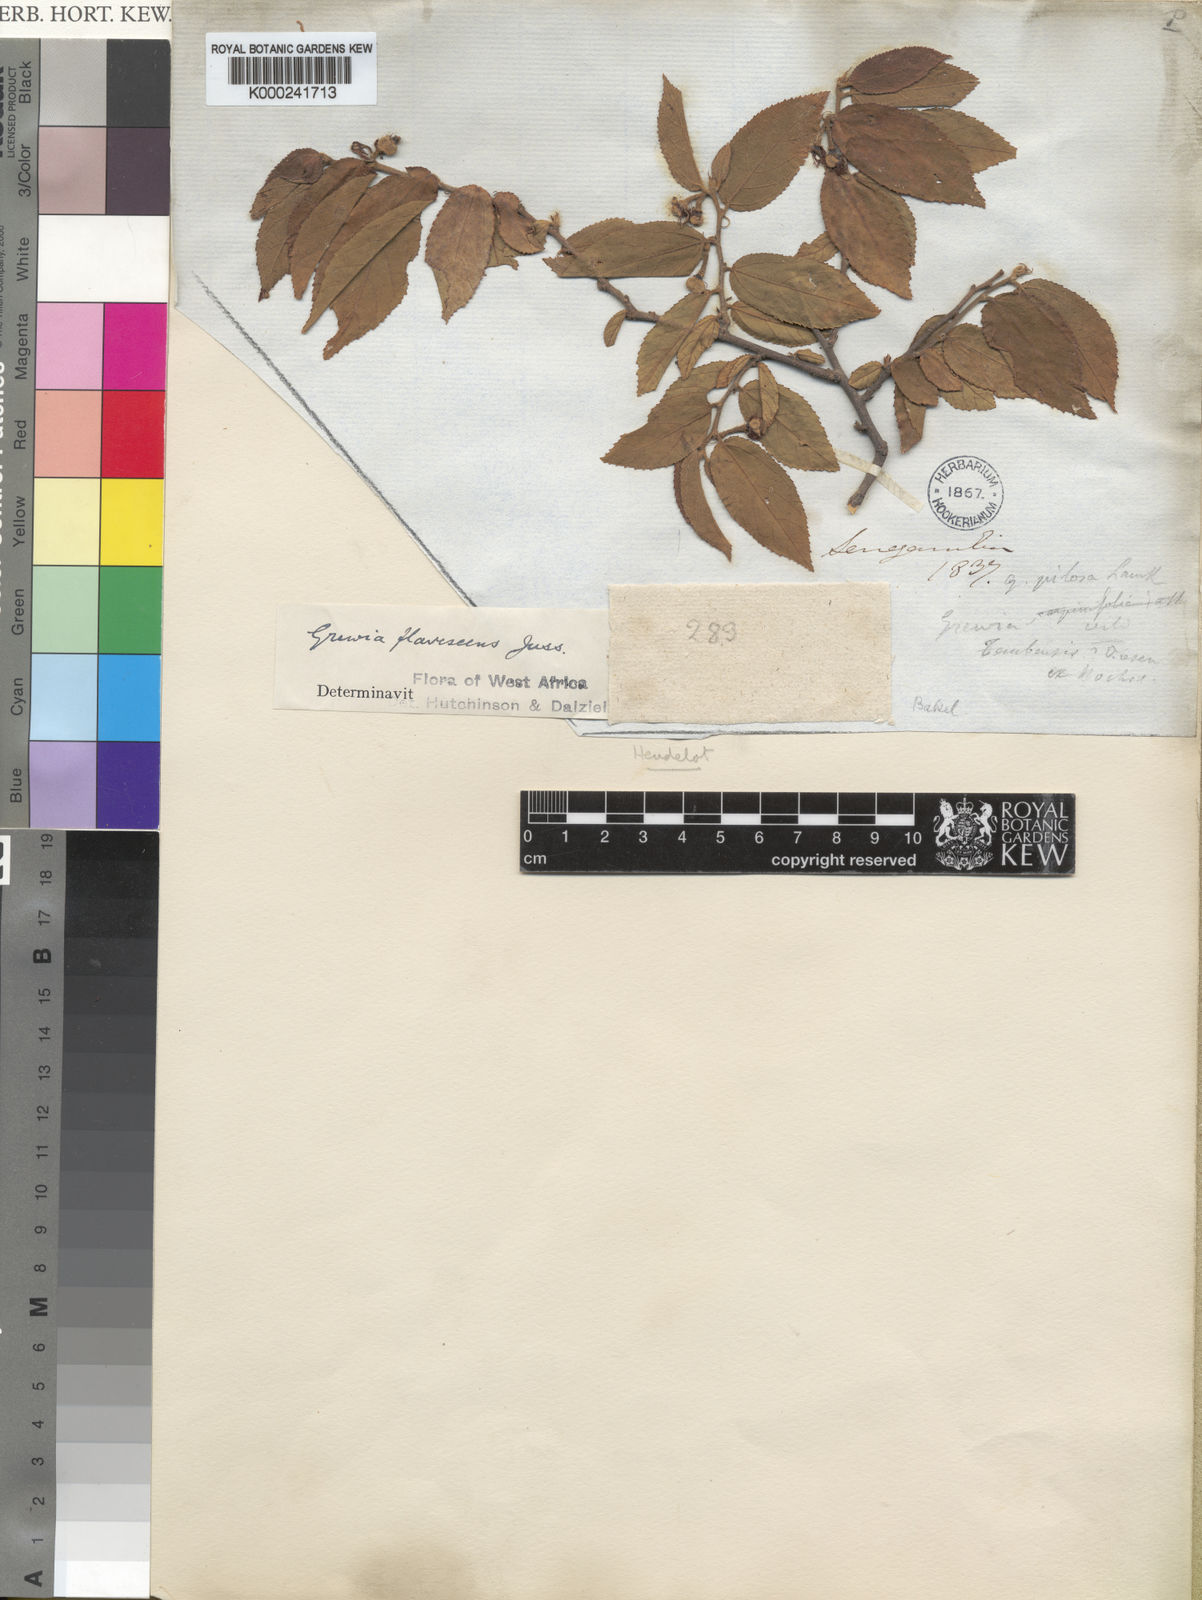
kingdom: Plantae
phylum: Tracheophyta
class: Magnoliopsida
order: Malvales
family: Malvaceae
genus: Grewia
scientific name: Grewia flavescens
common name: Sandpaper raisin
